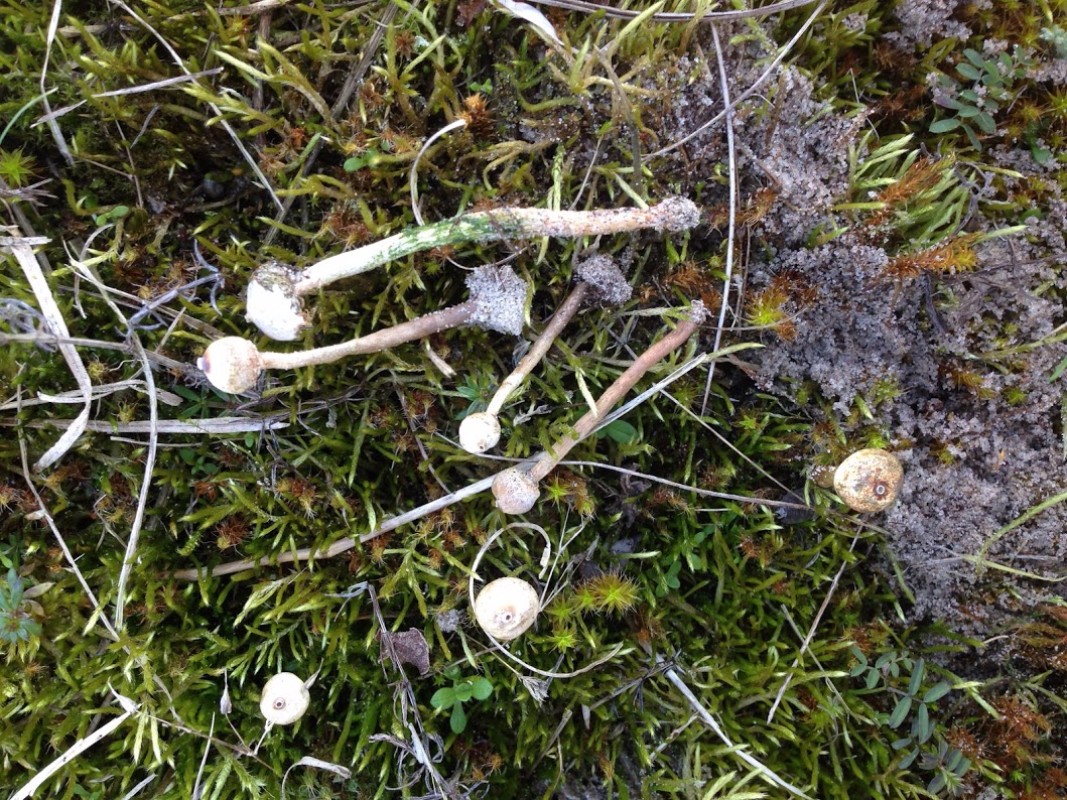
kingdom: Fungi
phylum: Basidiomycota
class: Agaricomycetes
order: Agaricales
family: Agaricaceae
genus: Tulostoma
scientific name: Tulostoma brumale
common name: vinter-stilkbovist
